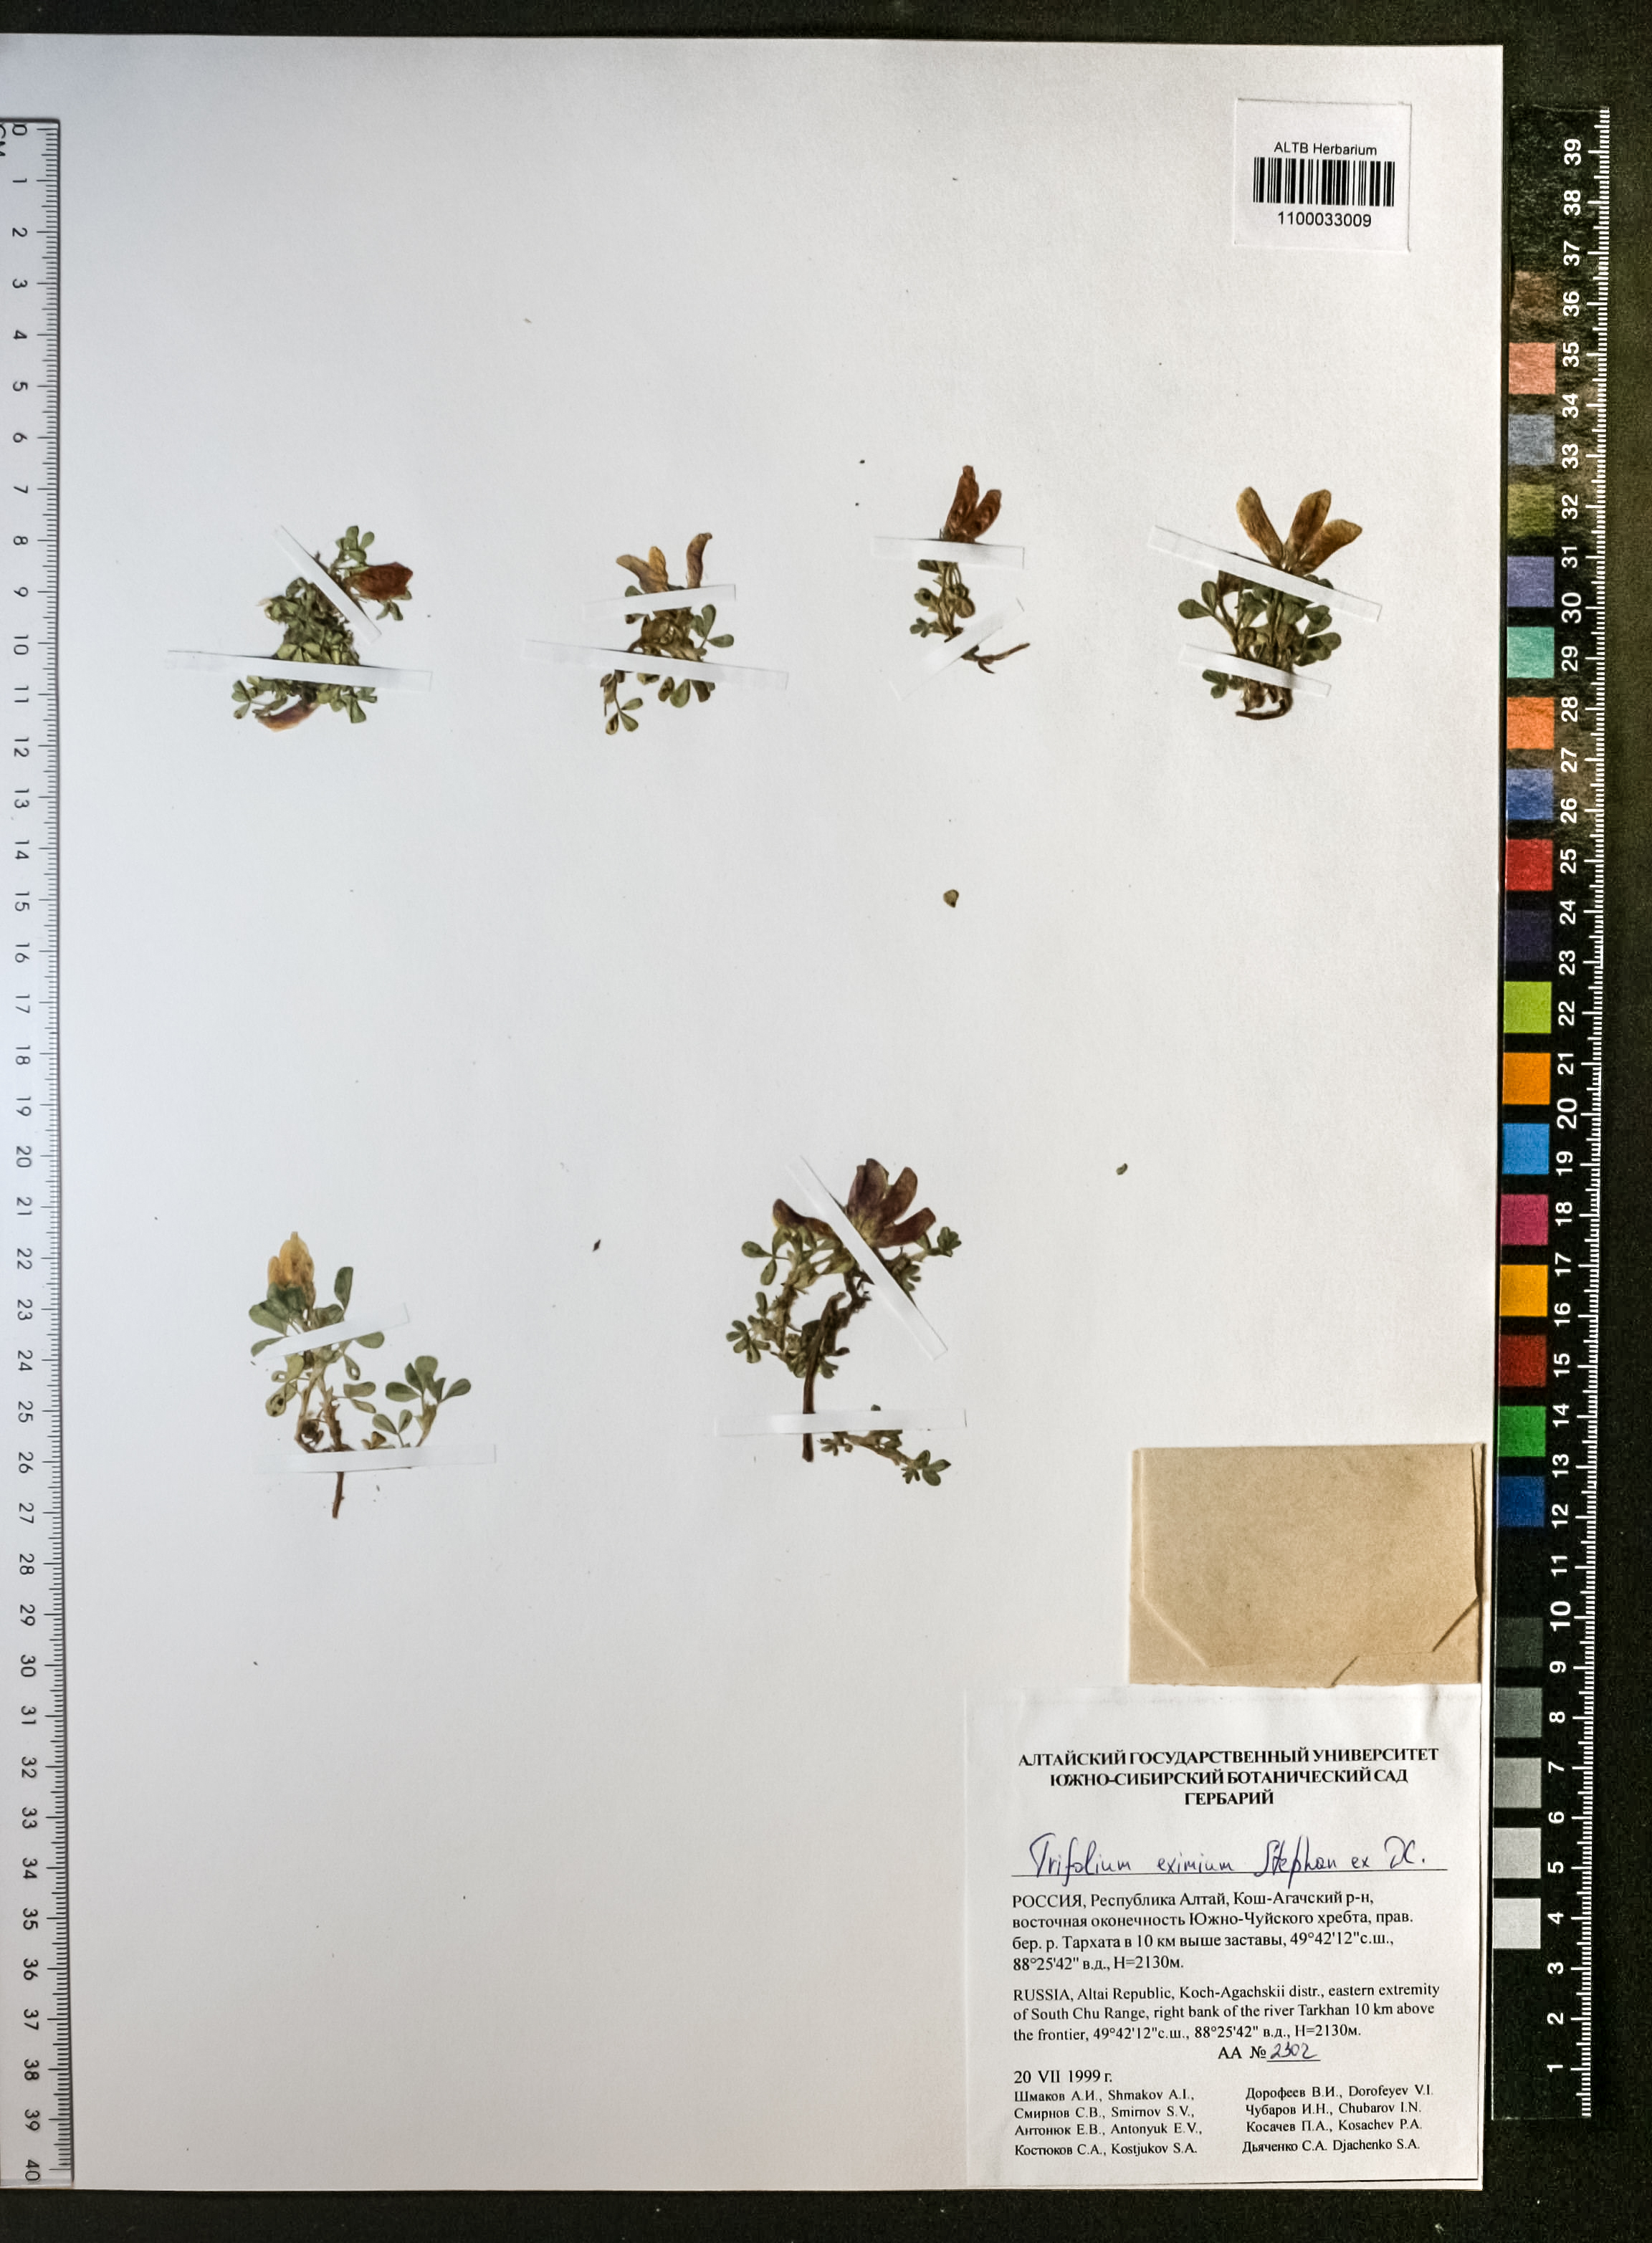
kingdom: Plantae
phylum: Tracheophyta
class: Magnoliopsida
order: Fabales
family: Fabaceae
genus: Trifolium
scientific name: Trifolium eximium
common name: Excellent clover
